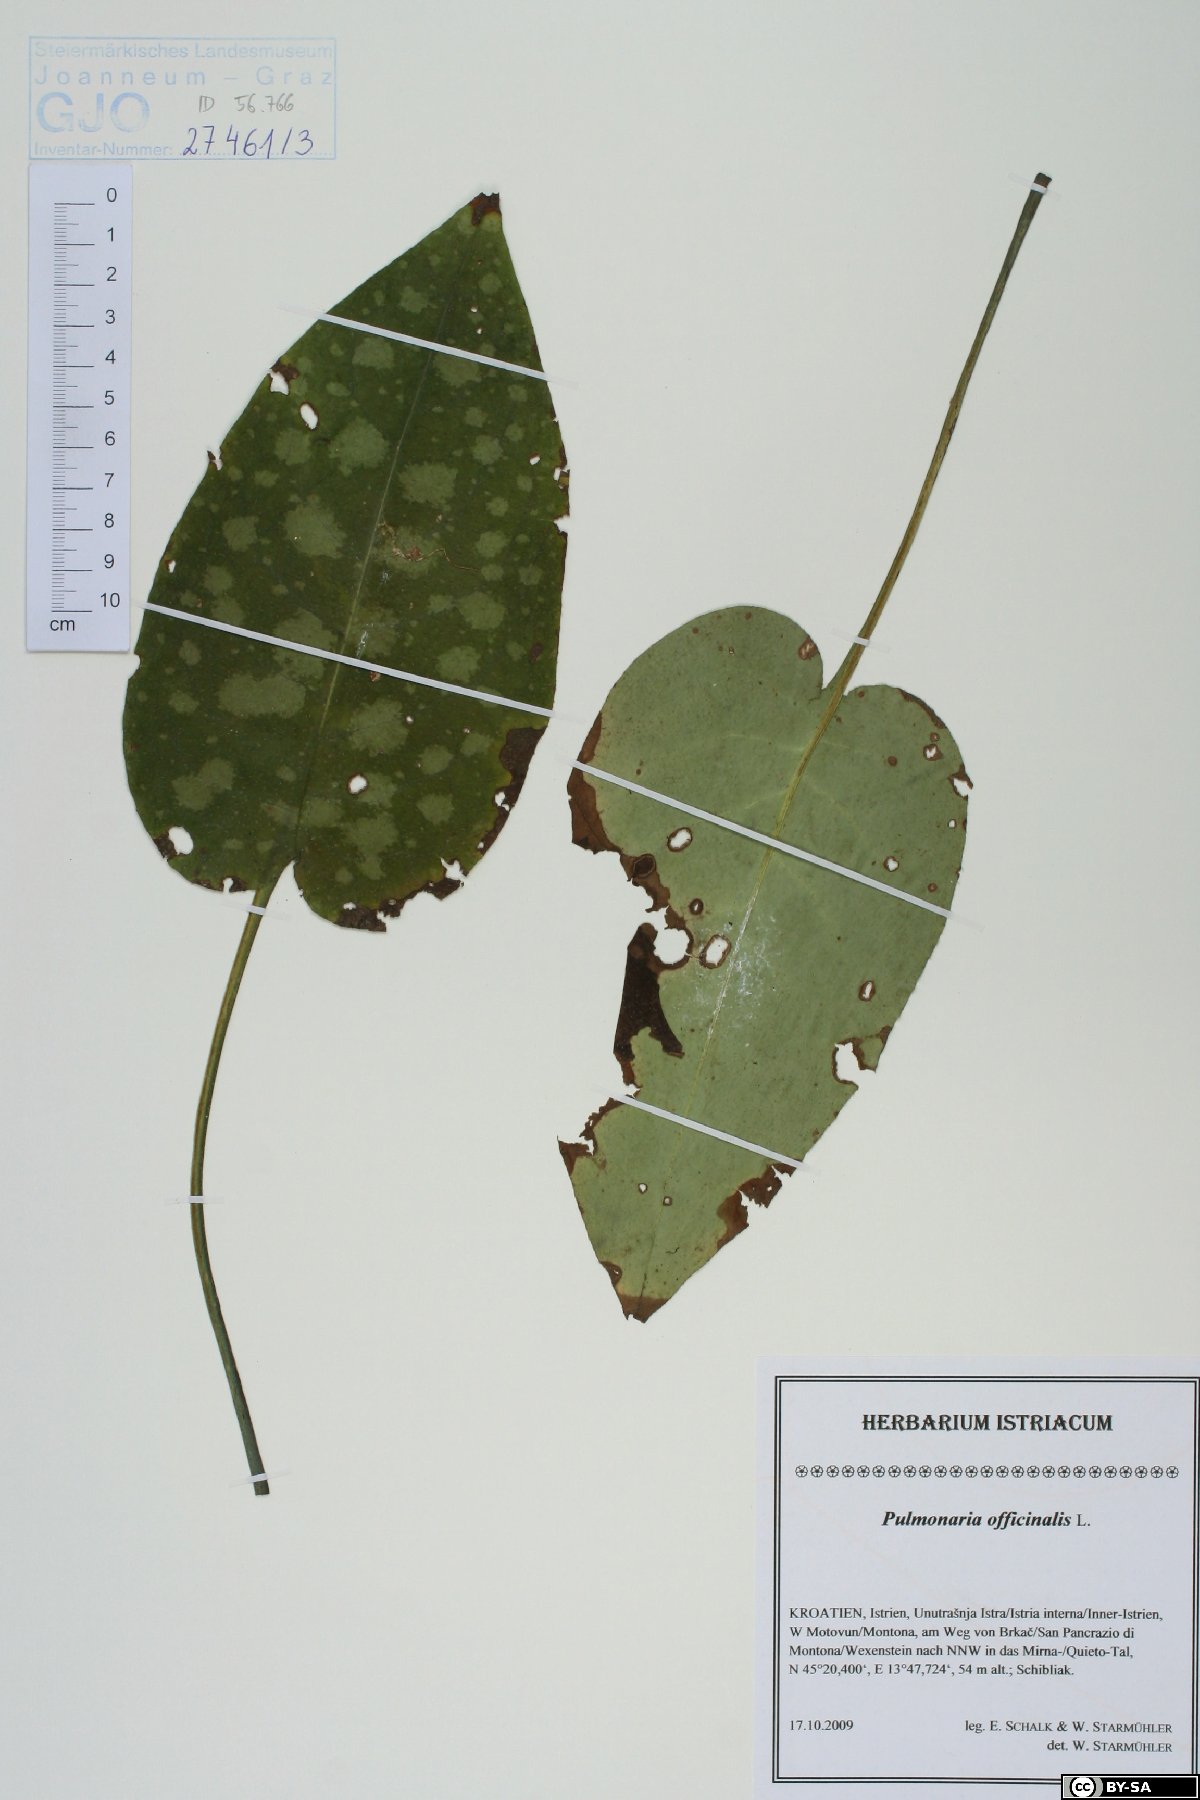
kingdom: Plantae
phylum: Tracheophyta
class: Magnoliopsida
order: Boraginales
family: Boraginaceae
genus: Pulmonaria
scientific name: Pulmonaria officinalis
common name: Lungwort
